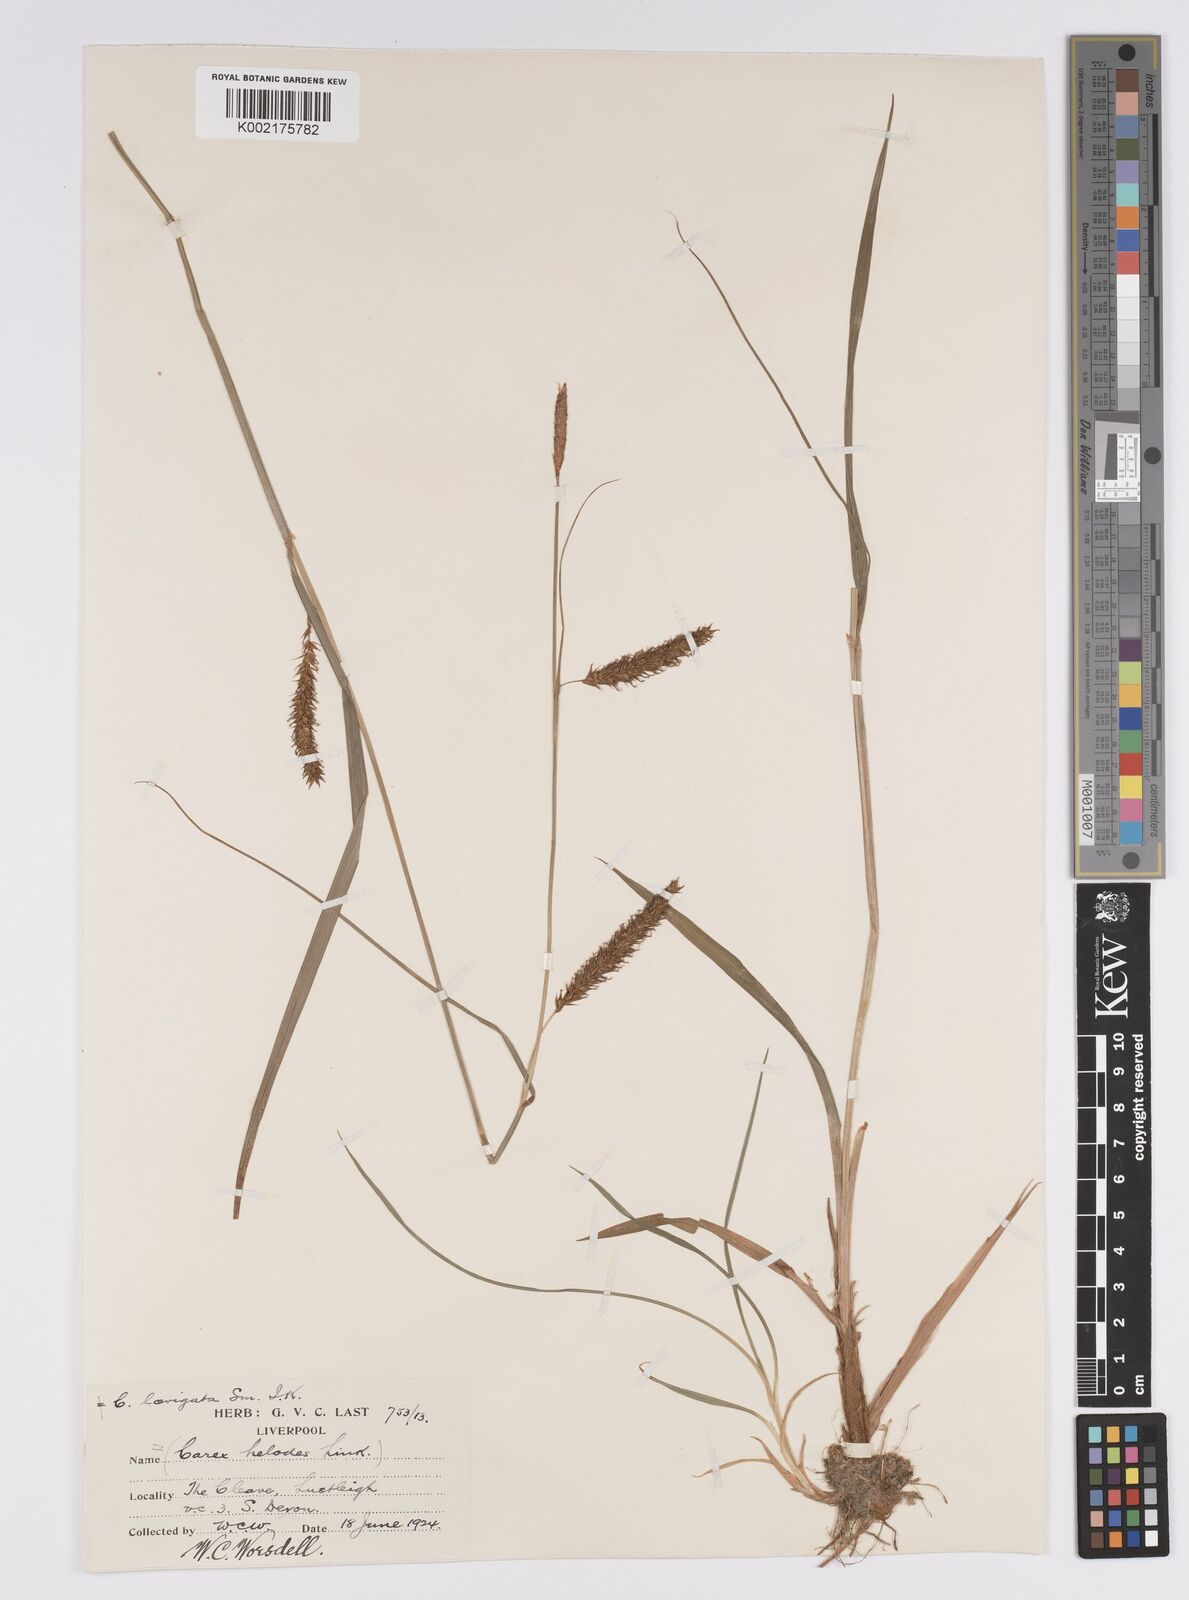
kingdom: Plantae
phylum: Tracheophyta
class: Liliopsida
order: Poales
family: Cyperaceae
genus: Carex
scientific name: Carex laevigata
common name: Smooth-stalked sedge
